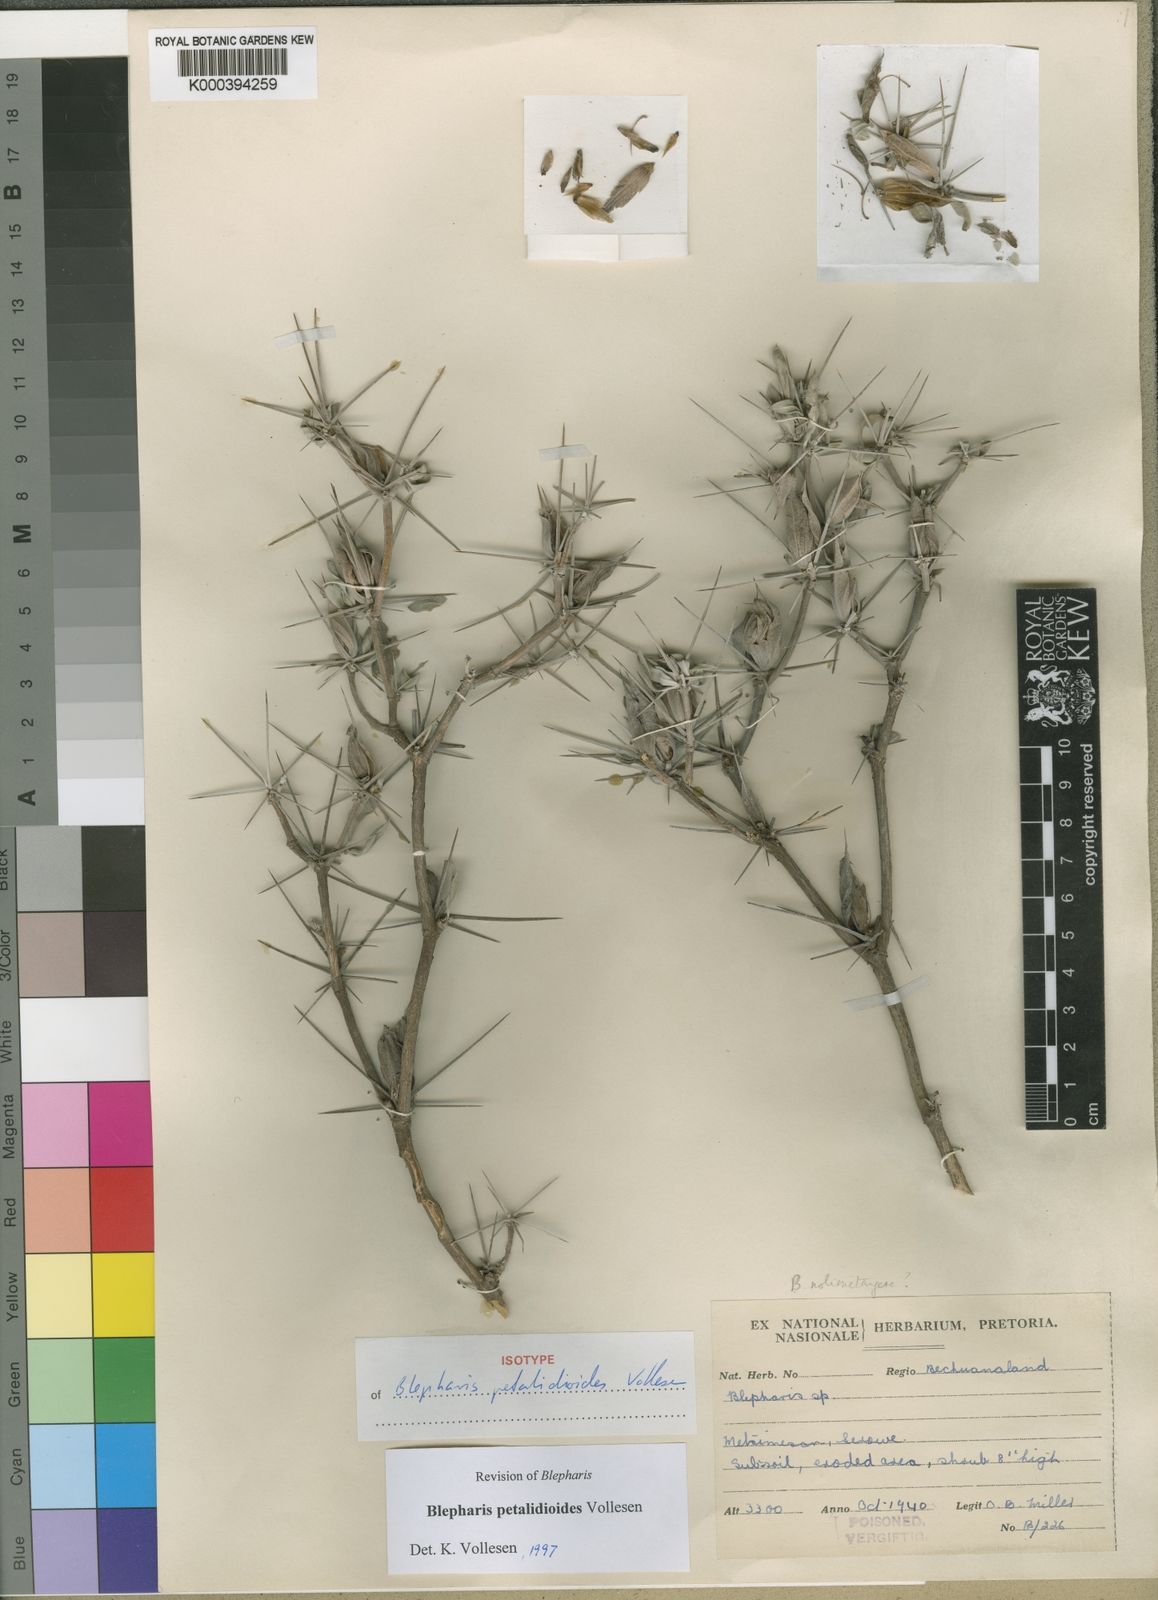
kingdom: Plantae
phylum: Tracheophyta
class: Magnoliopsida
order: Lamiales
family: Acanthaceae
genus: Blepharis
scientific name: Blepharis petalidioides
